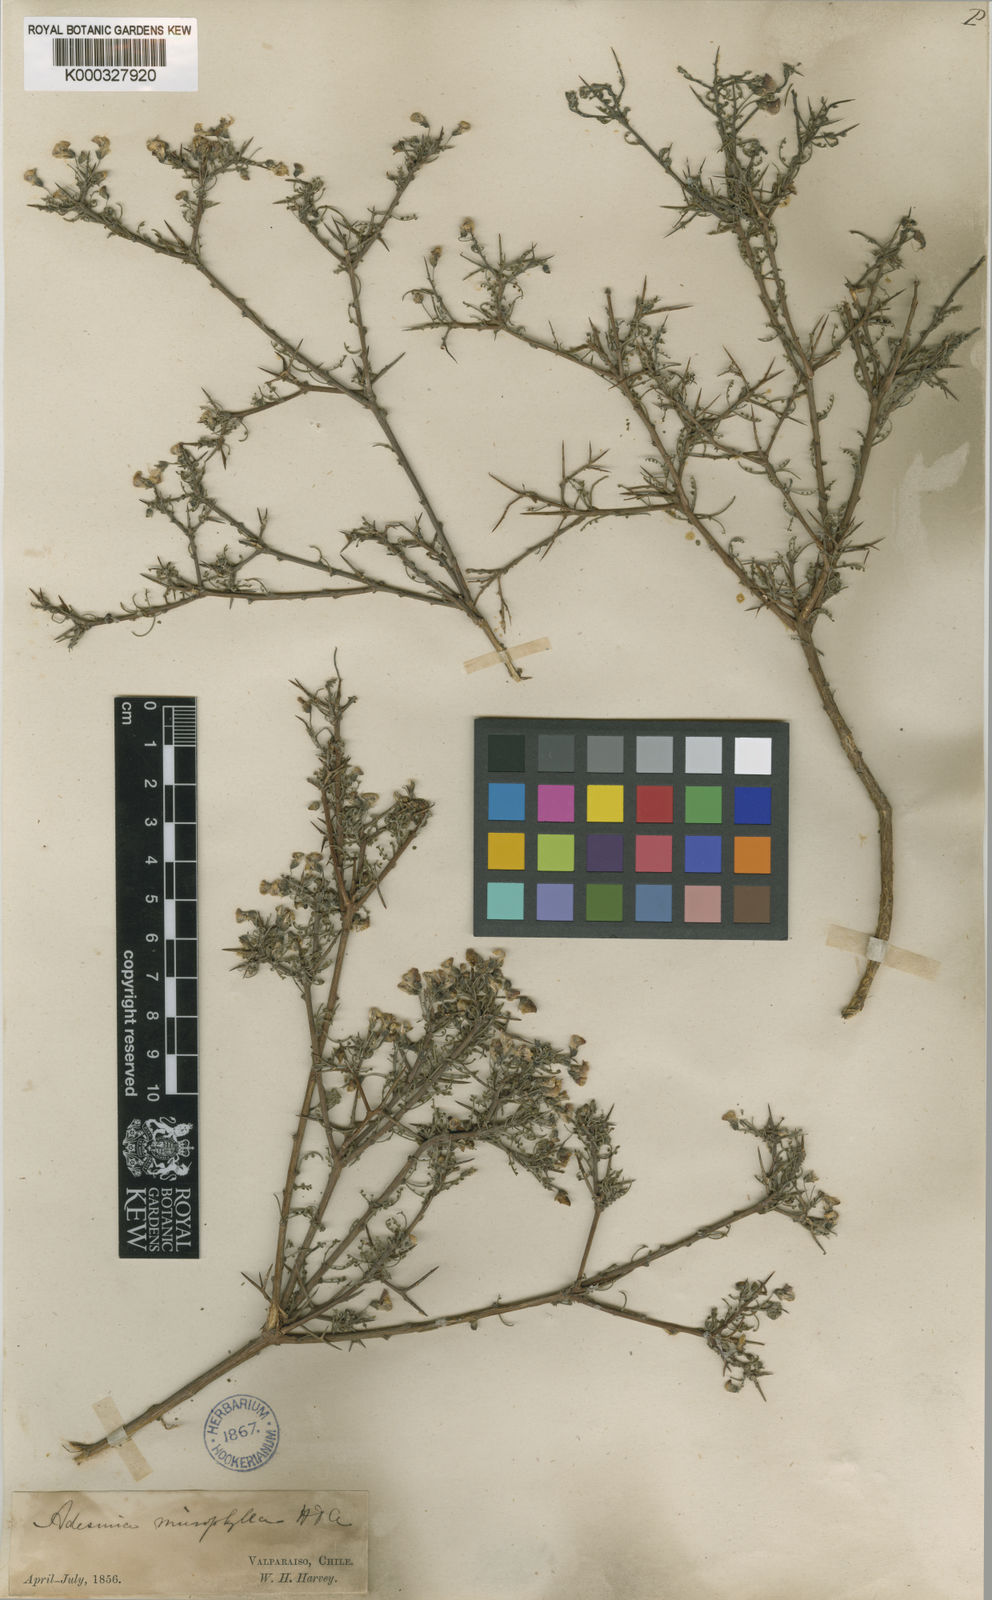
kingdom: Plantae
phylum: Tracheophyta
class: Magnoliopsida
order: Fabales
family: Fabaceae
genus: Adesmia
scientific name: Adesmia microphylla
